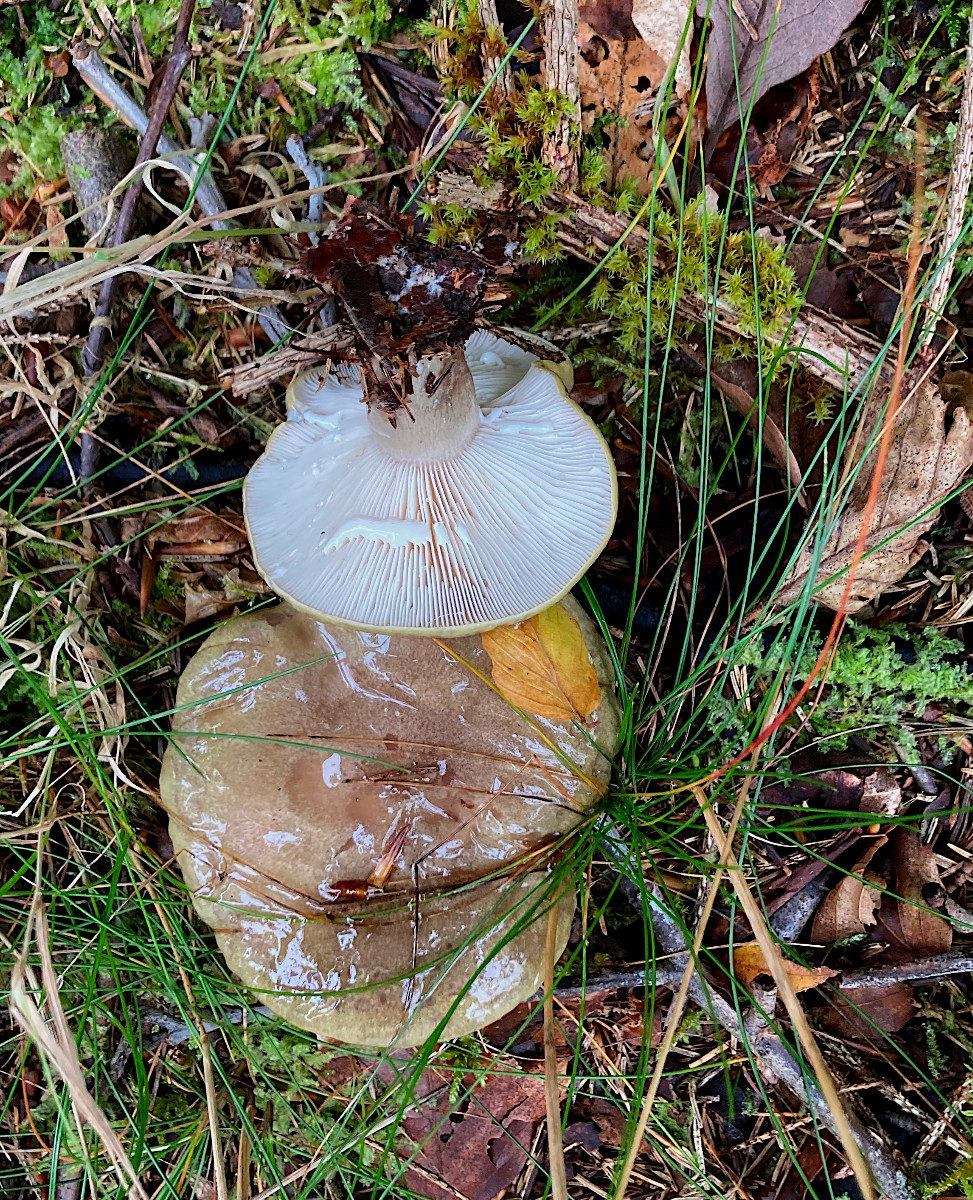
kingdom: Fungi
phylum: Basidiomycota
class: Agaricomycetes
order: Russulales
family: Russulaceae
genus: Lactarius
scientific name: Lactarius blennius
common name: dråbeplettet mælkehat
